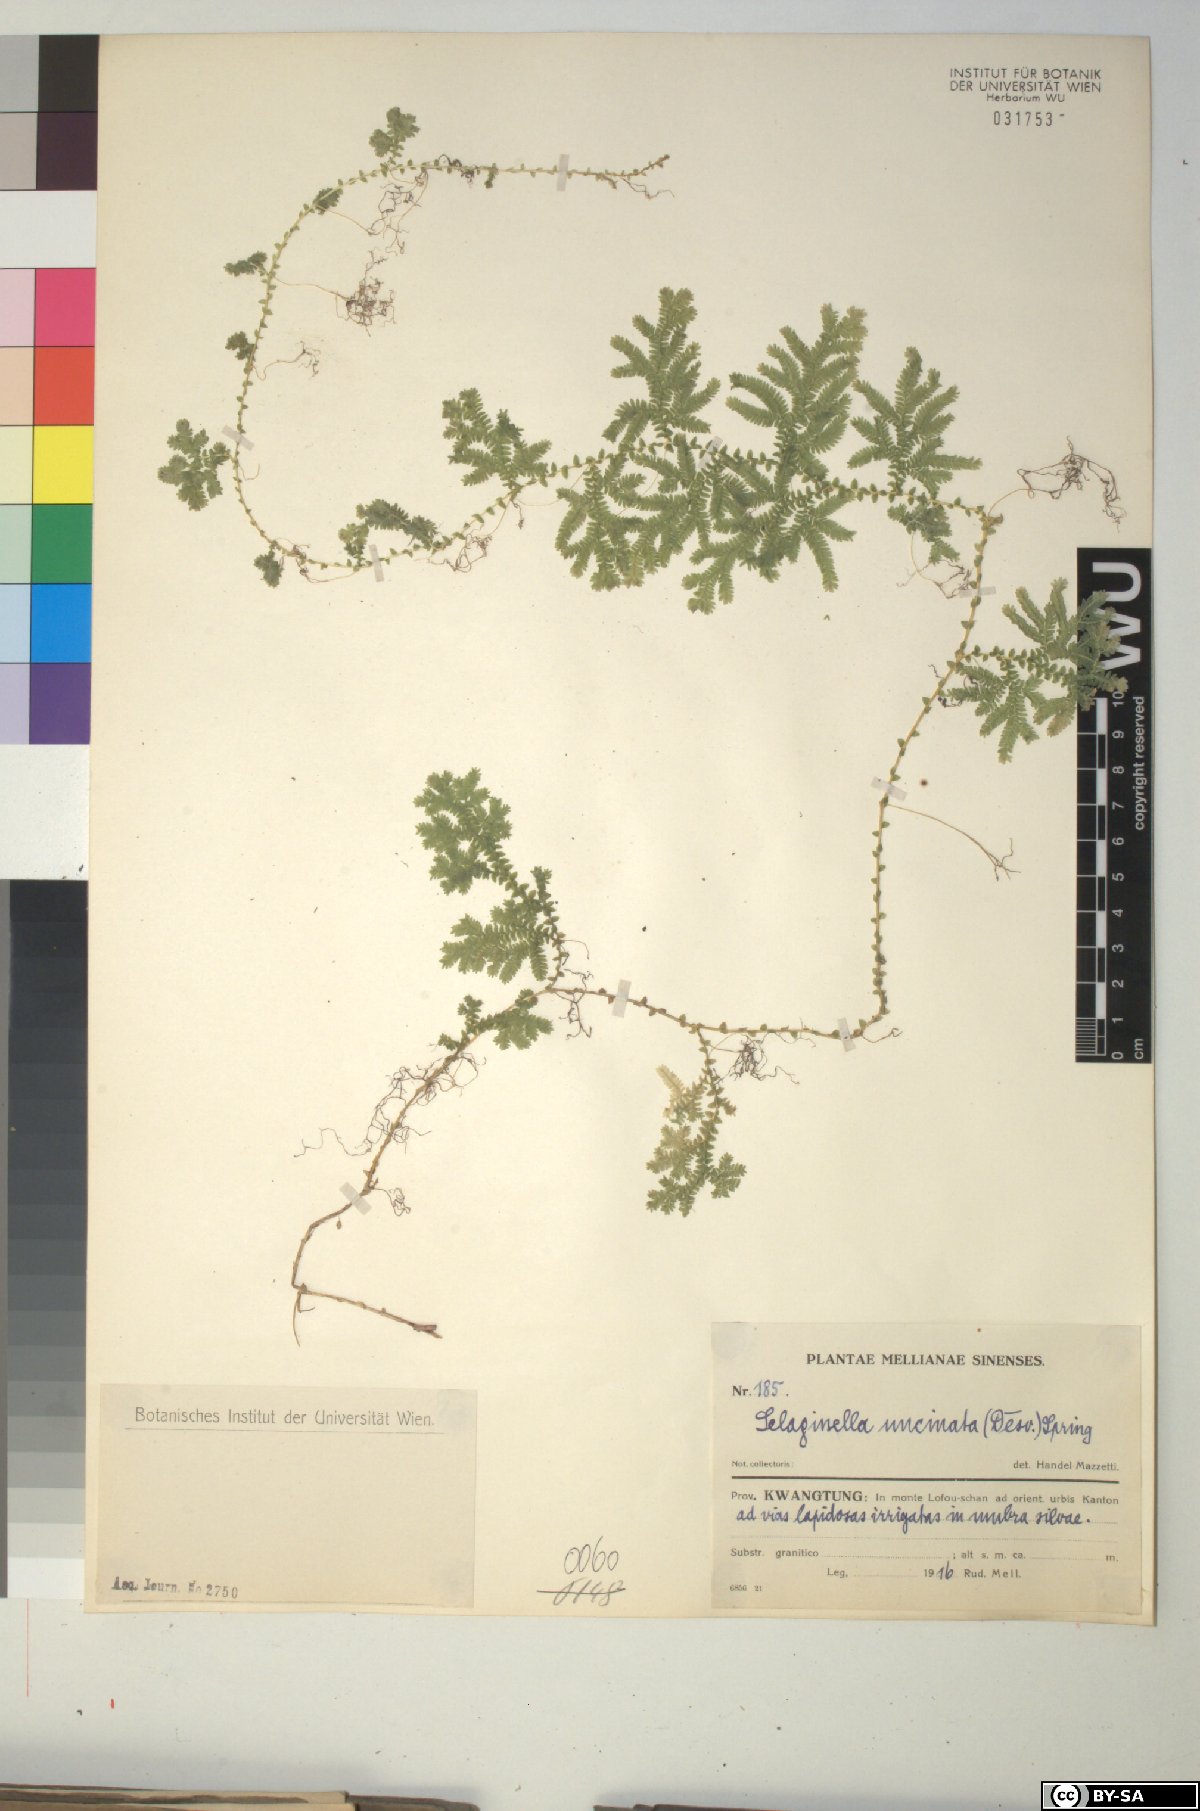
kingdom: Plantae
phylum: Tracheophyta
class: Lycopodiopsida
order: Selaginellales
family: Selaginellaceae
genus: Selaginella
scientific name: Selaginella uncinata
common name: Blue spikemoss
